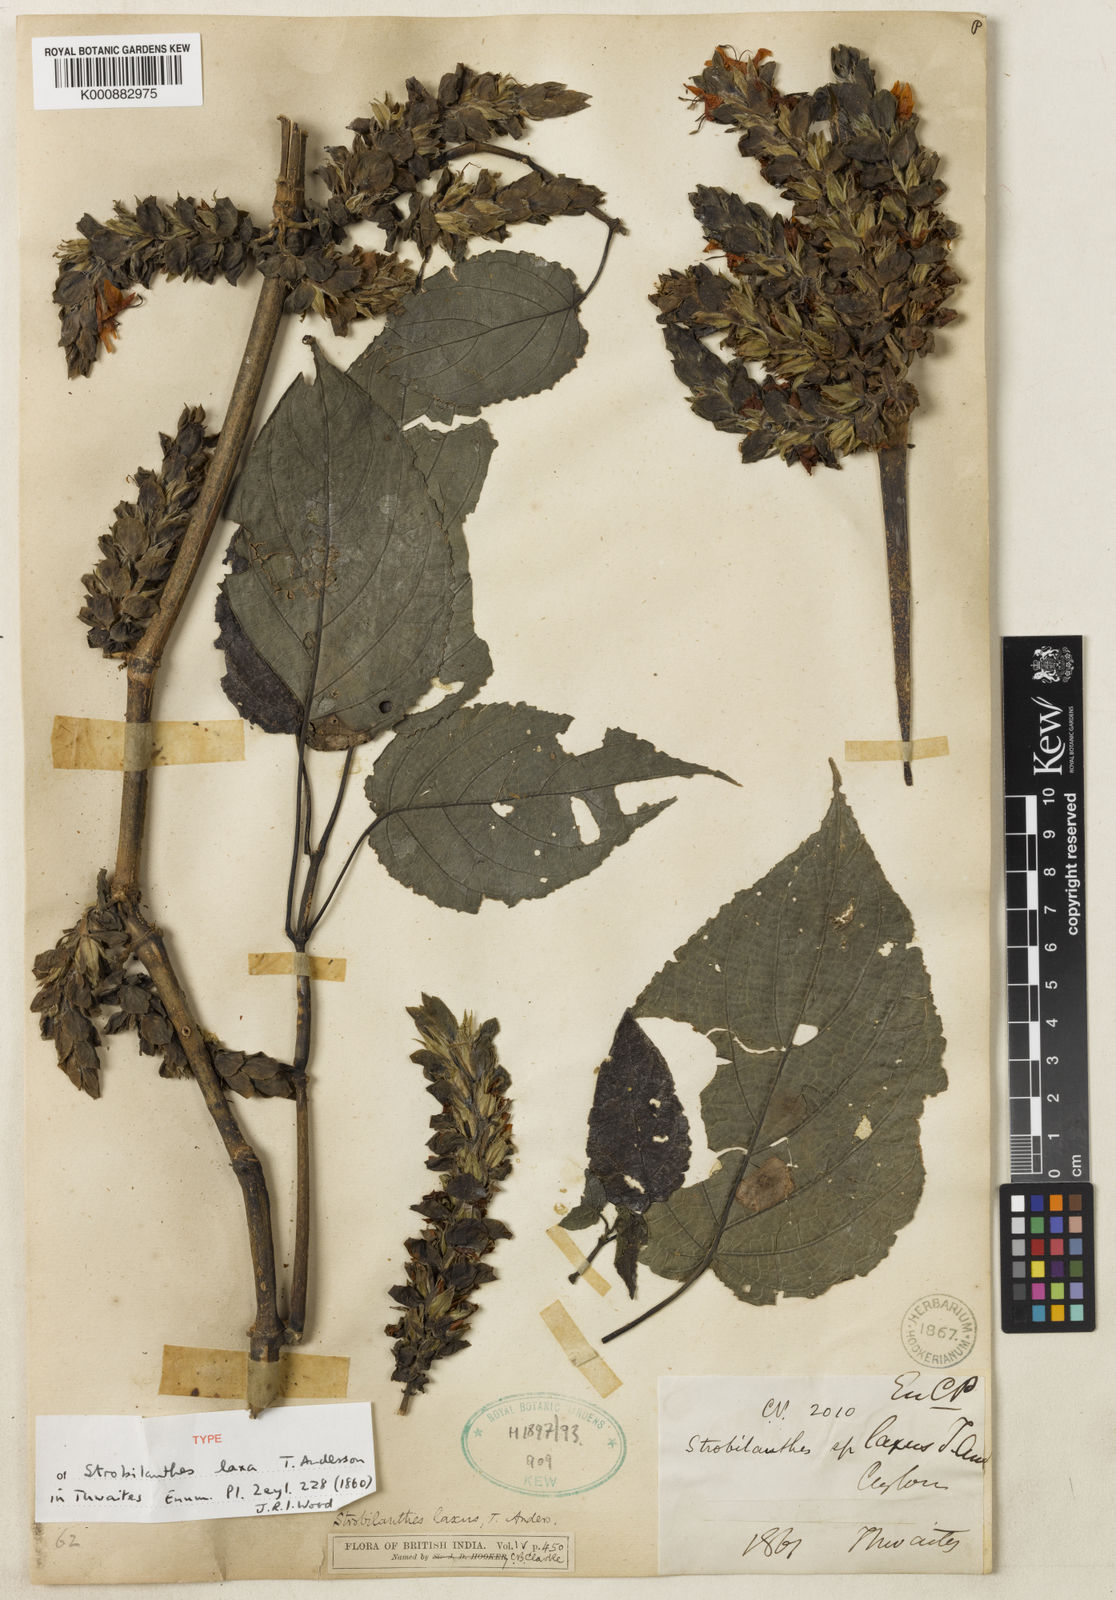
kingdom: Plantae
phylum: Tracheophyta
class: Magnoliopsida
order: Lamiales
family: Acanthaceae
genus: Strobilanthes
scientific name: Strobilanthes laxa
